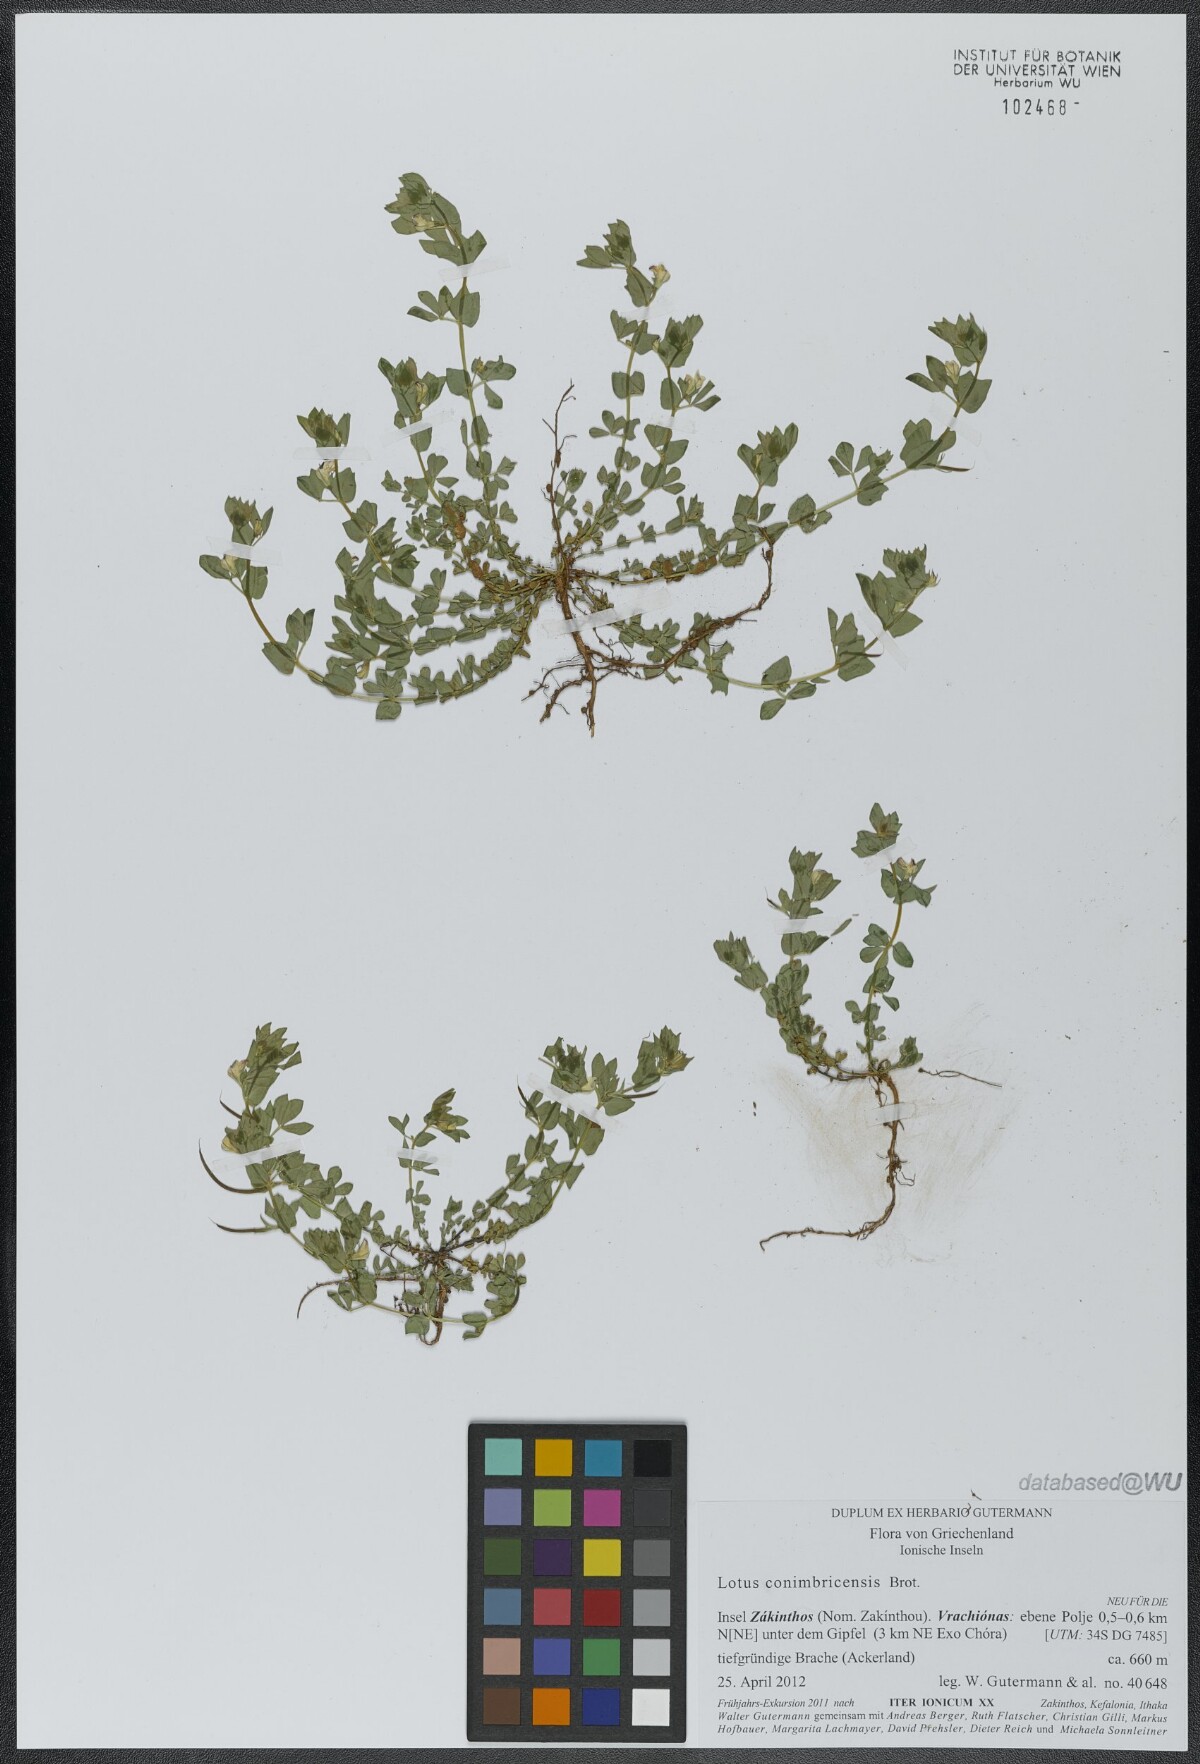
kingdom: Plantae
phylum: Tracheophyta
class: Magnoliopsida
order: Fabales
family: Fabaceae
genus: Lotus
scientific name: Lotus conimbricensis
